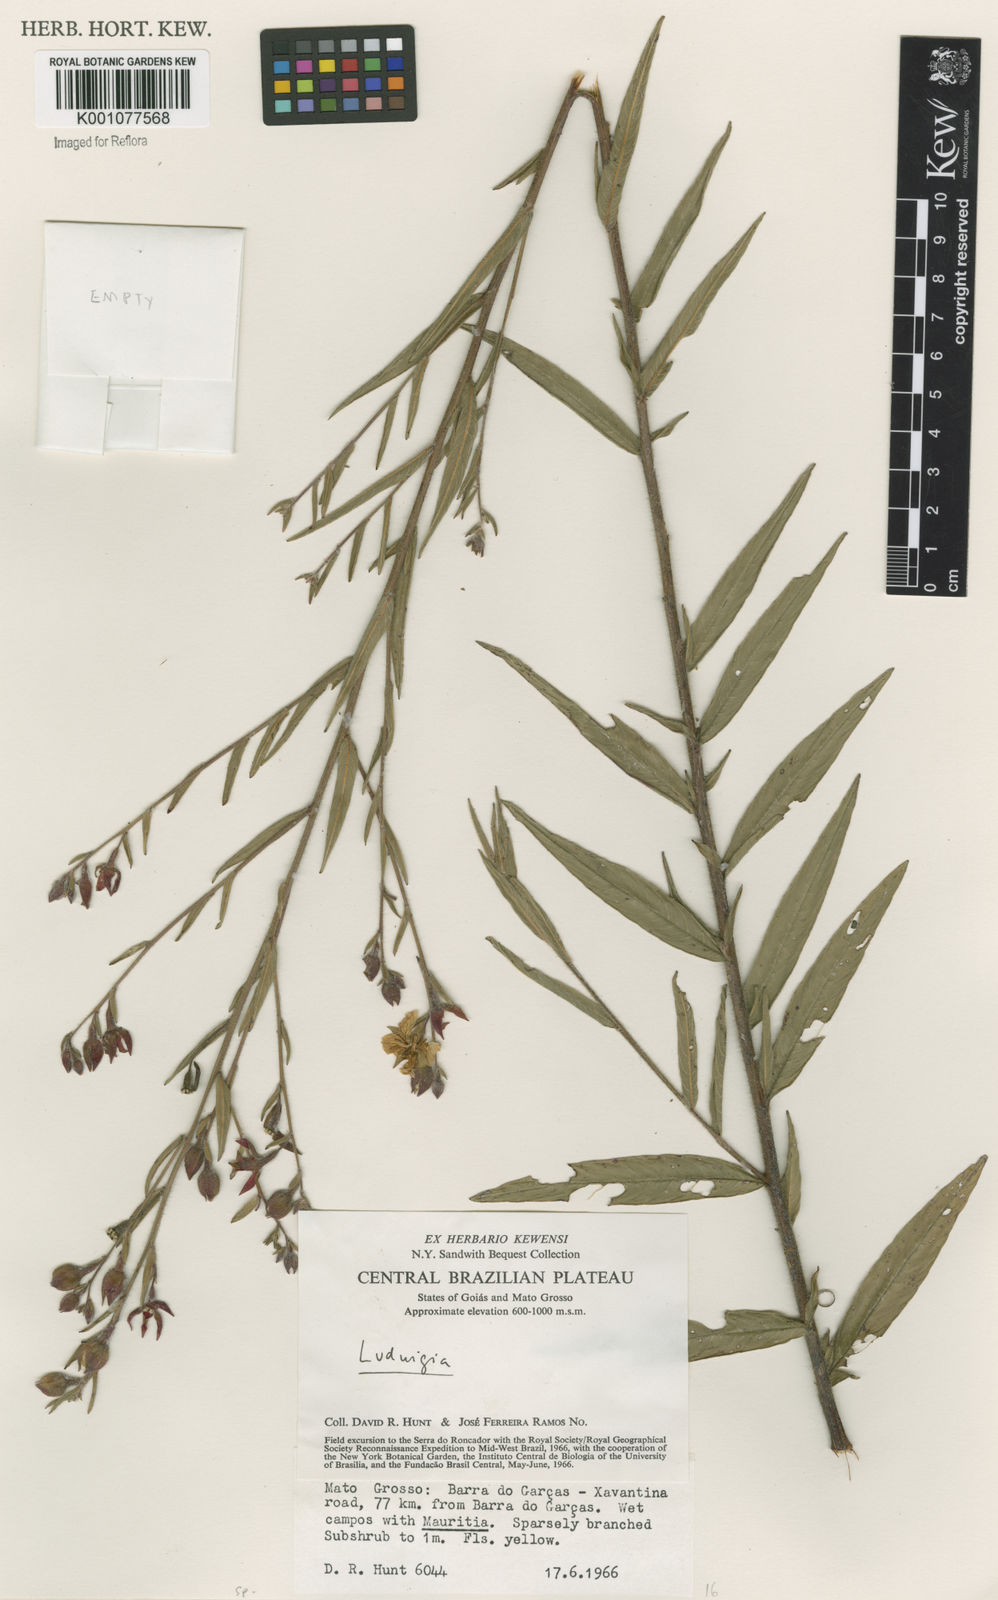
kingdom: Plantae
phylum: Tracheophyta
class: Magnoliopsida
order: Myrtales
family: Onagraceae
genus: Ludwigia
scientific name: Ludwigia
